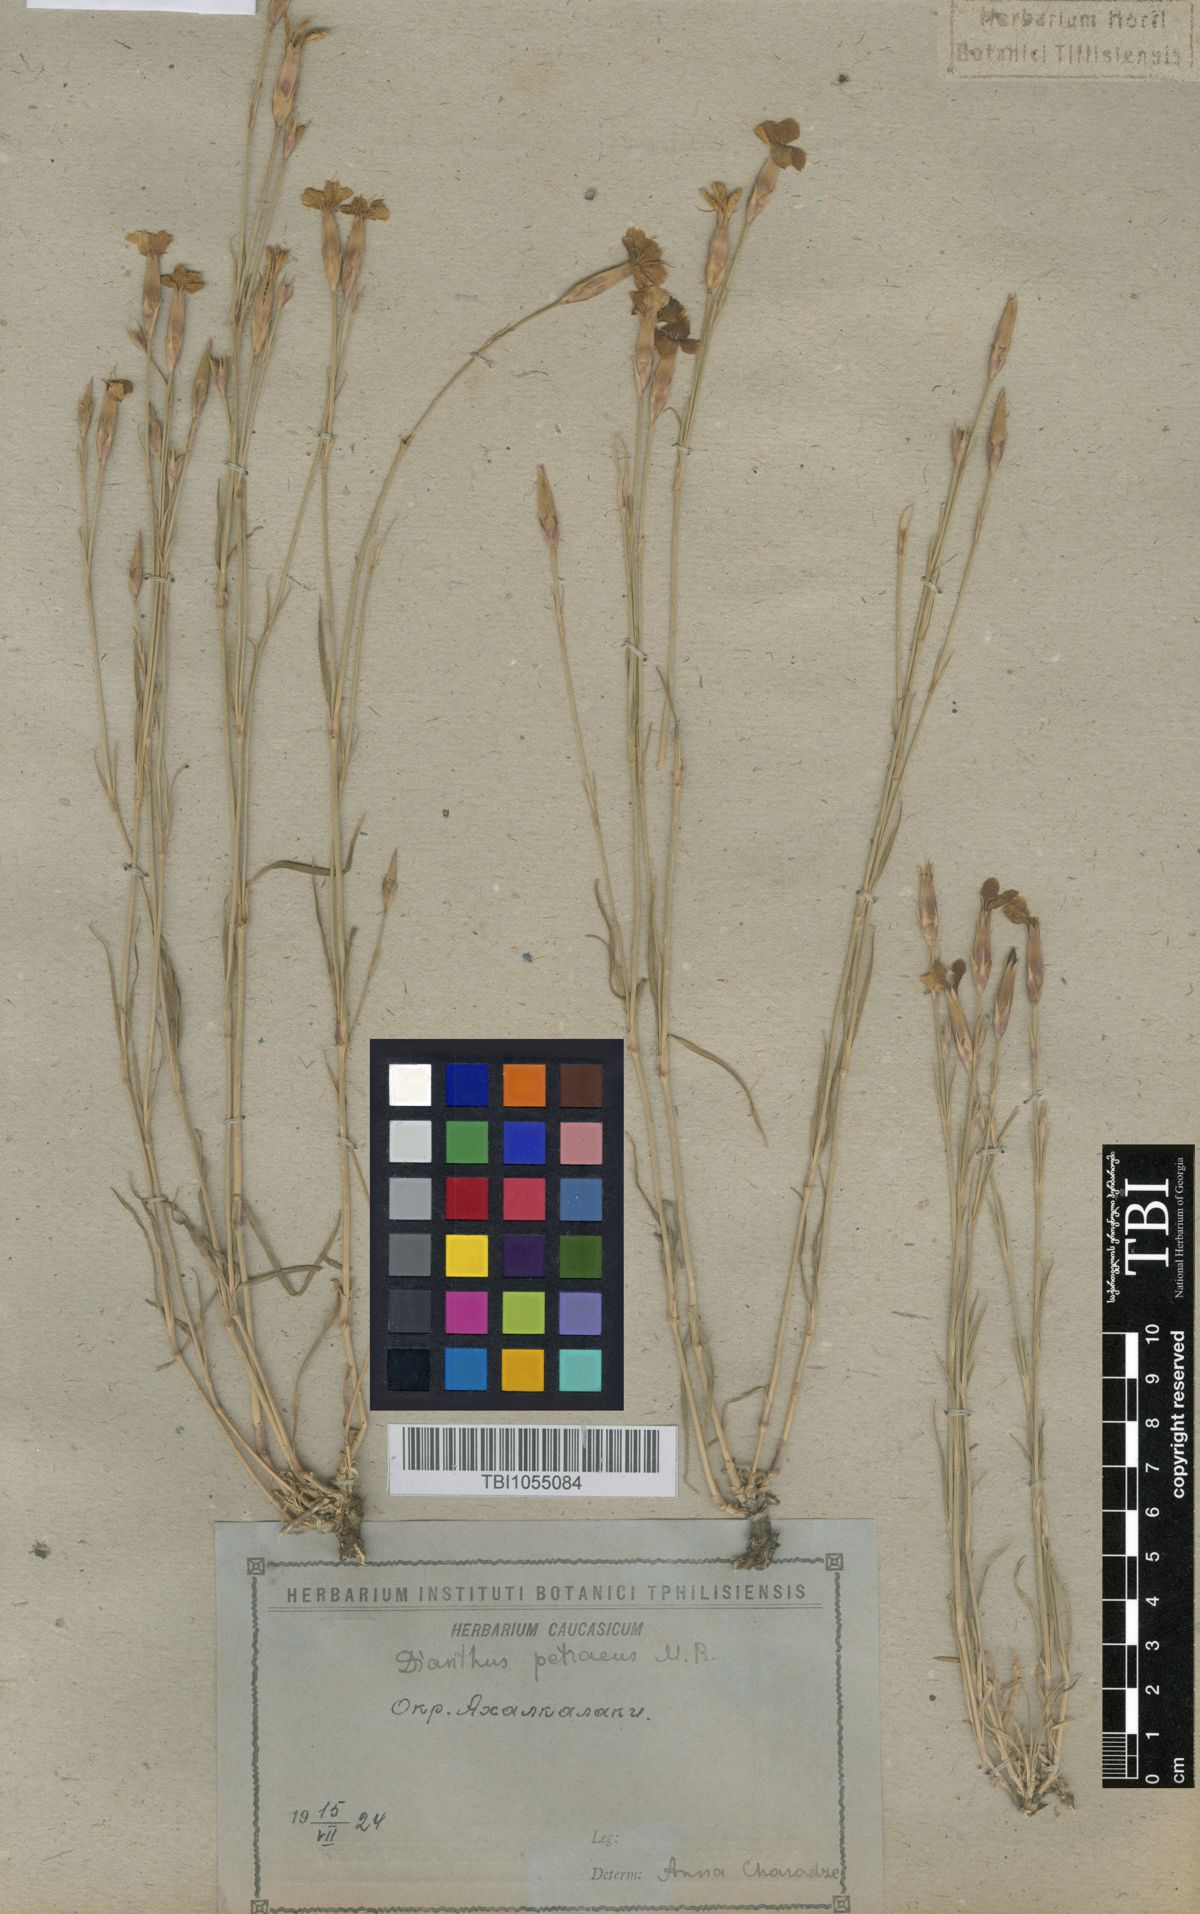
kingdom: Plantae
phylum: Tracheophyta
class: Magnoliopsida
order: Caryophyllales
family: Caryophyllaceae
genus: Dianthus
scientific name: Dianthus cretaceus
